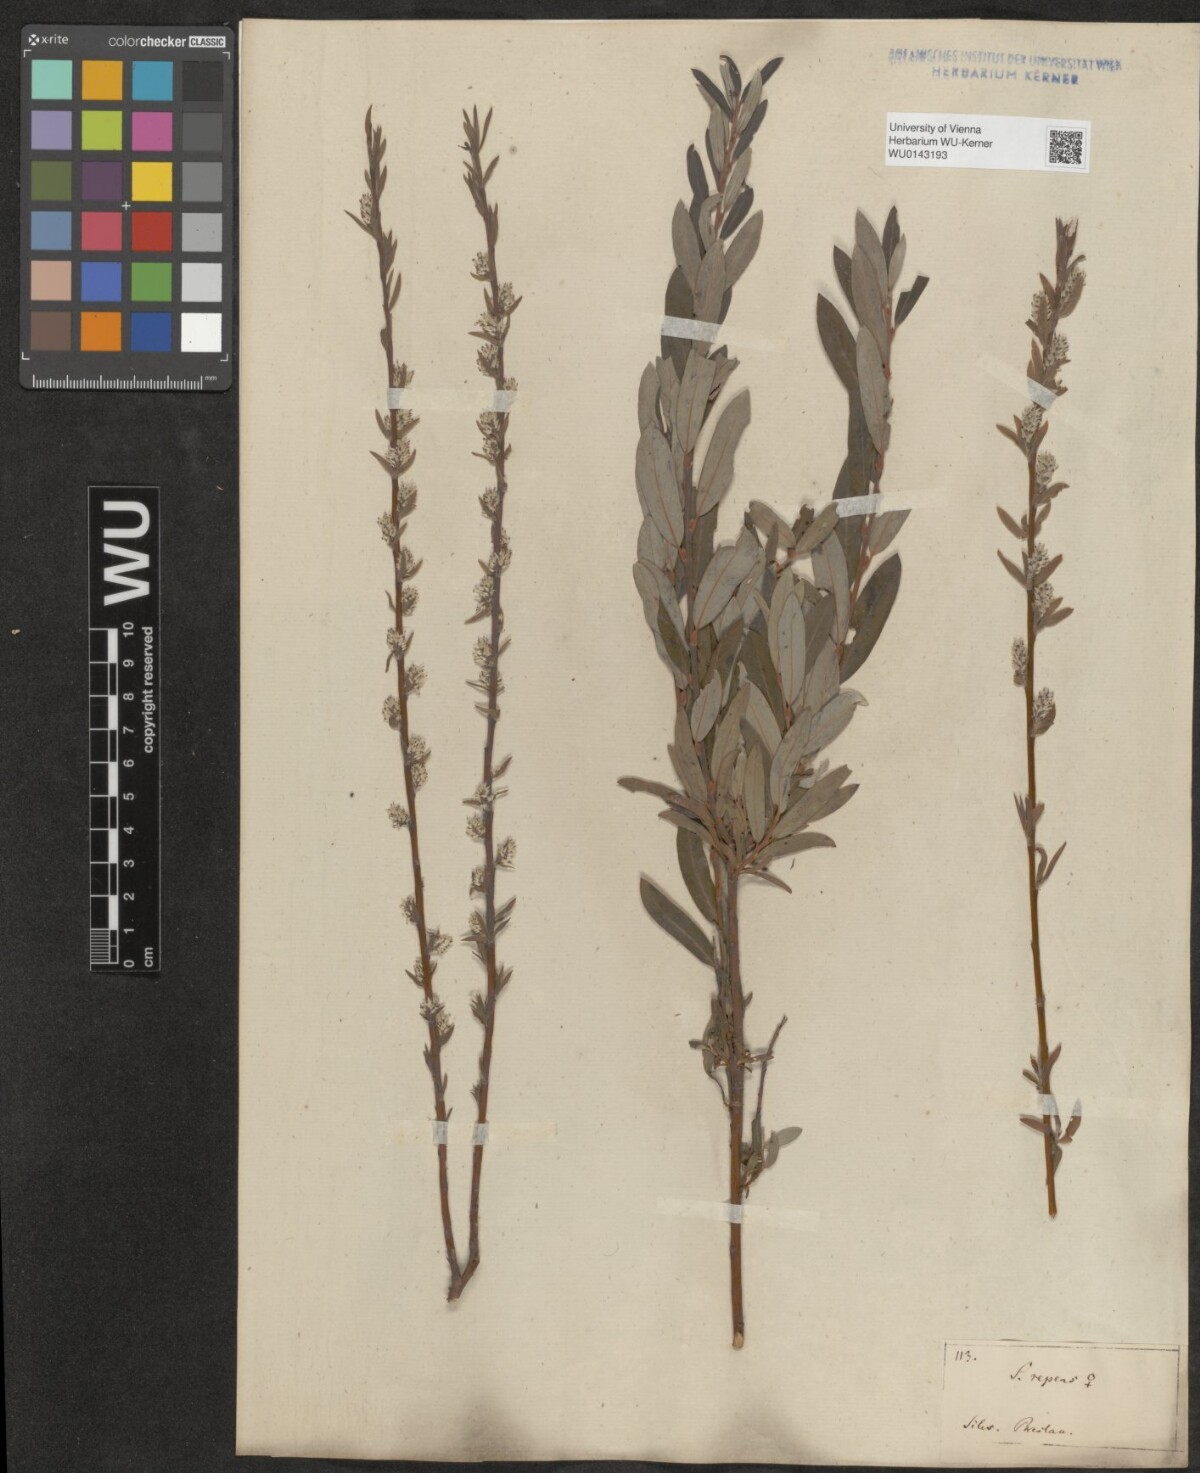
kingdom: Plantae
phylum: Tracheophyta
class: Magnoliopsida
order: Malpighiales
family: Salicaceae
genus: Salix
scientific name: Salix repens
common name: Creeping willow
